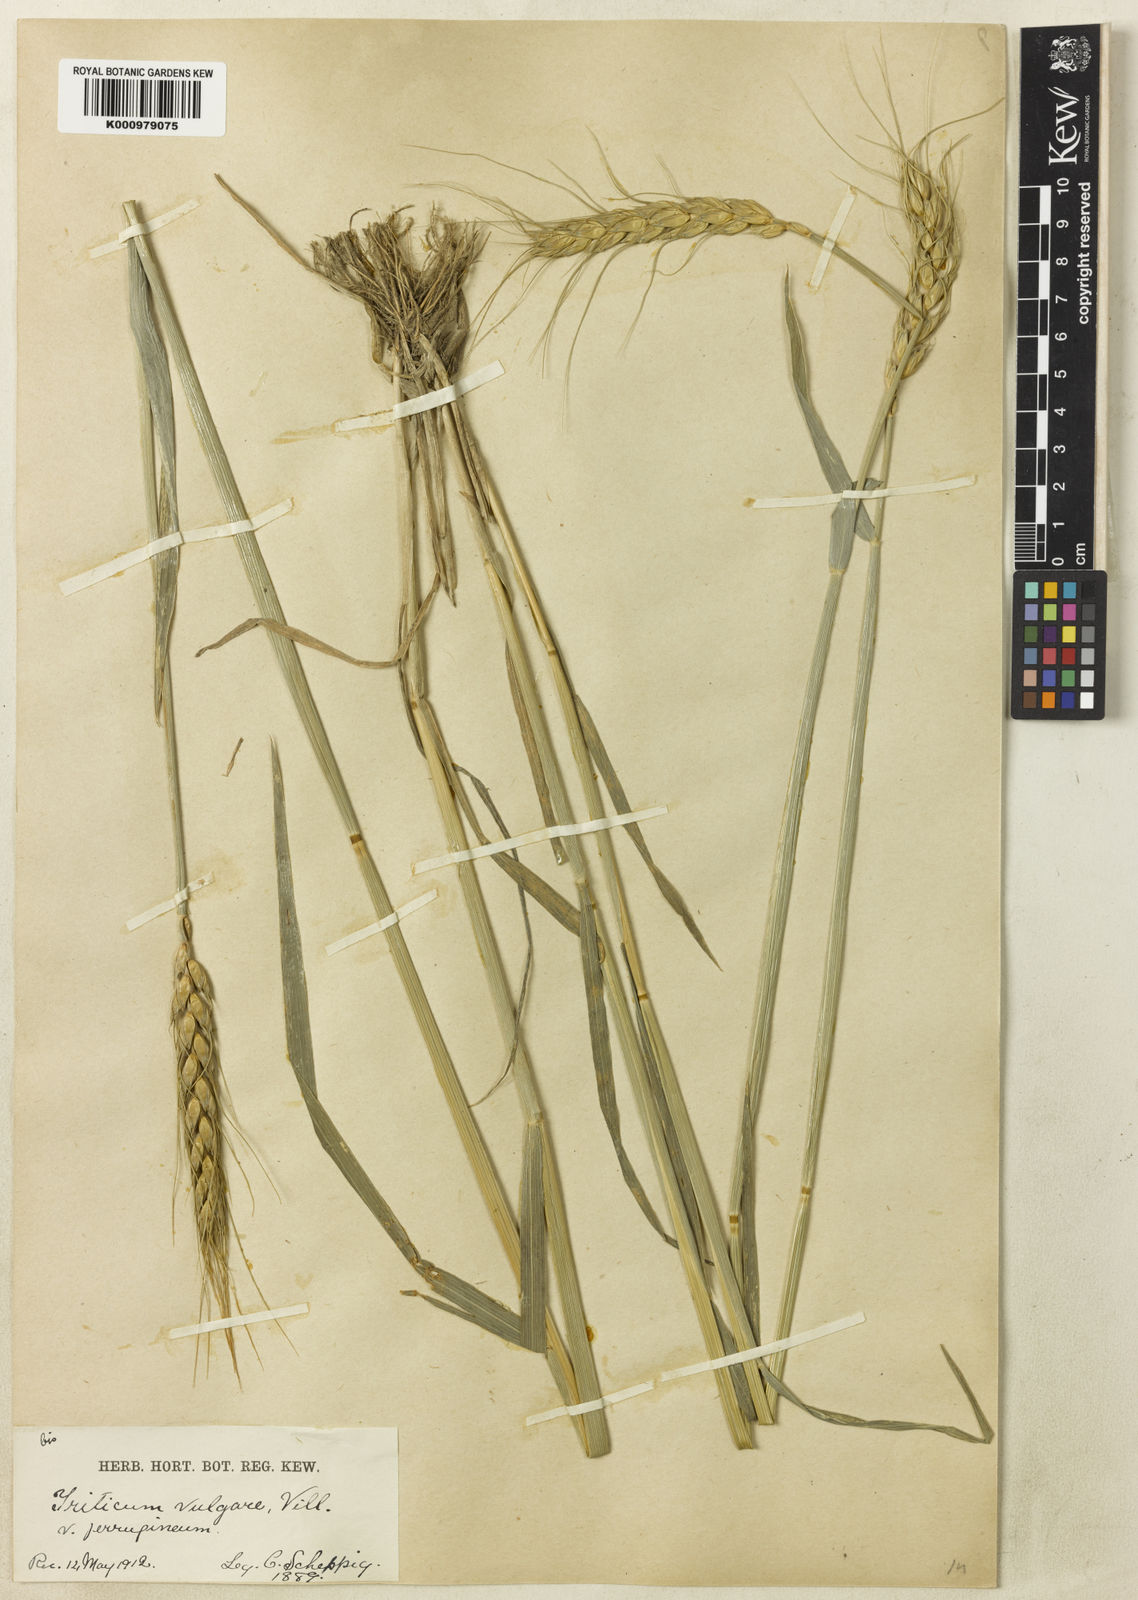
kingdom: Plantae
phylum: Tracheophyta
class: Liliopsida
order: Poales
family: Poaceae
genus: Triticum
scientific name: Triticum aestivum
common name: Common wheat
